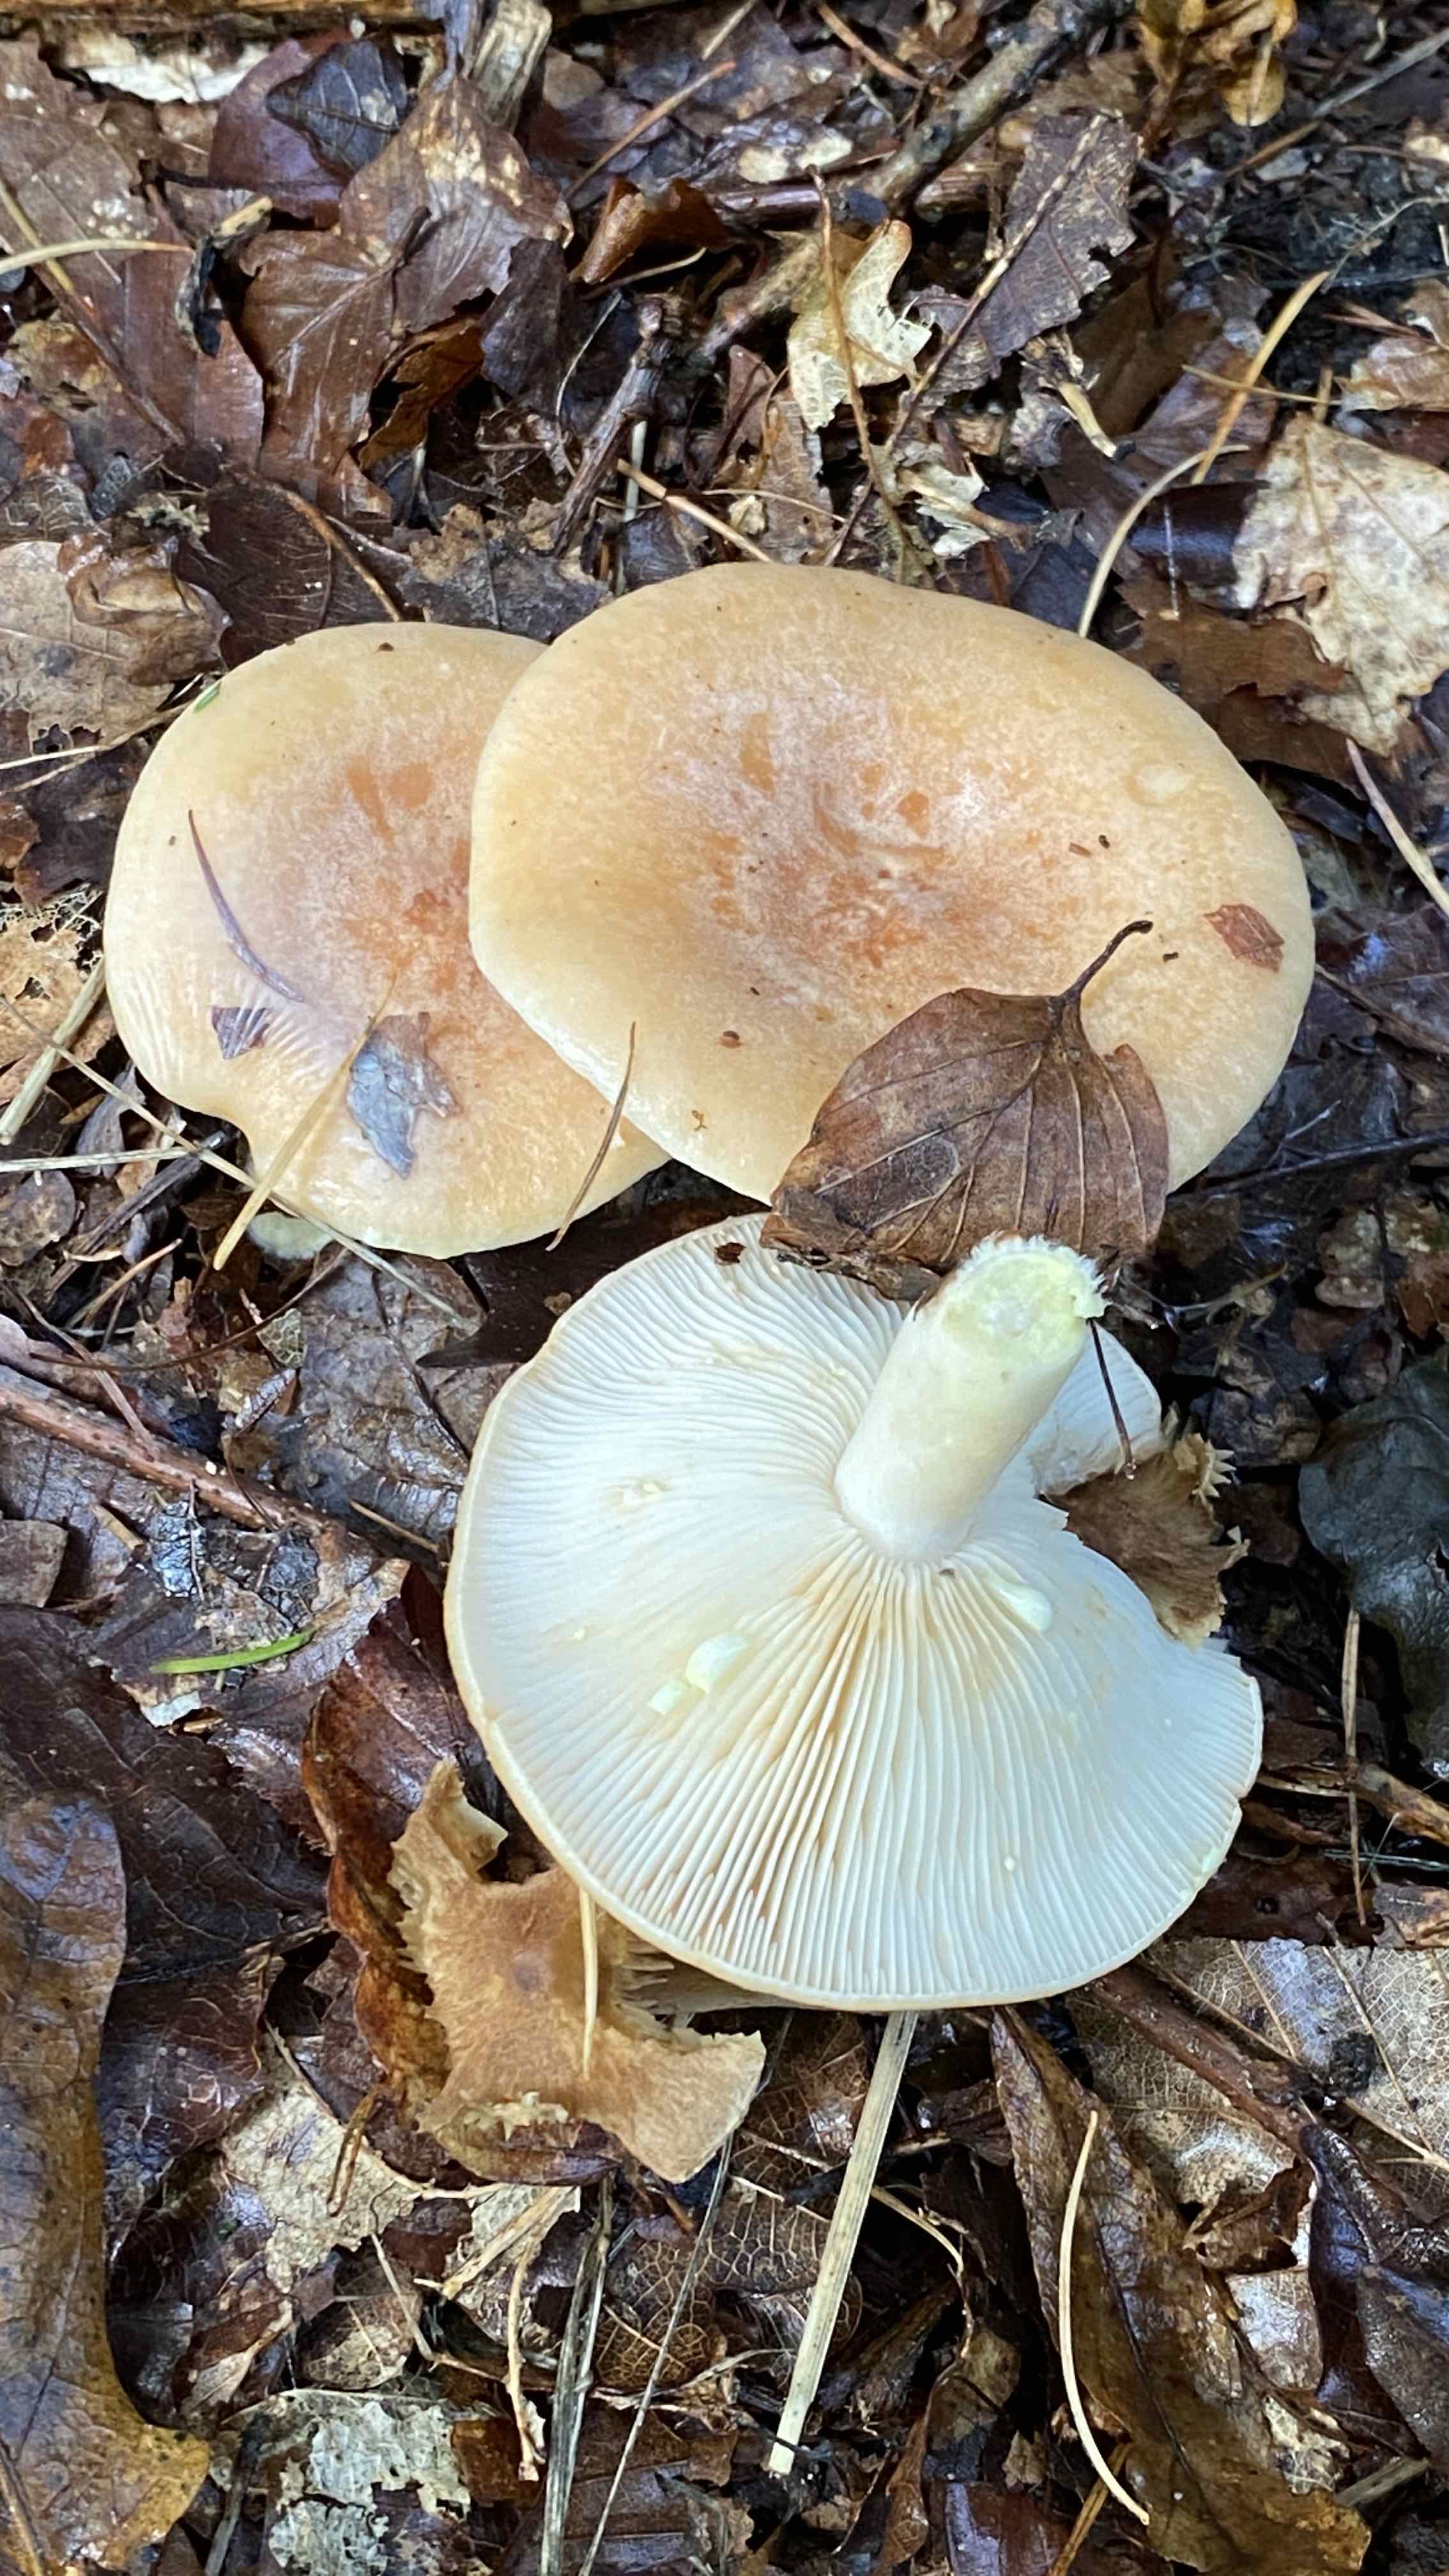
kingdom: Fungi
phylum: Basidiomycota
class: Agaricomycetes
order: Russulales
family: Russulaceae
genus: Lactarius
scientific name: Lactarius chrysorrheus
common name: svovlmælket mælkehat
